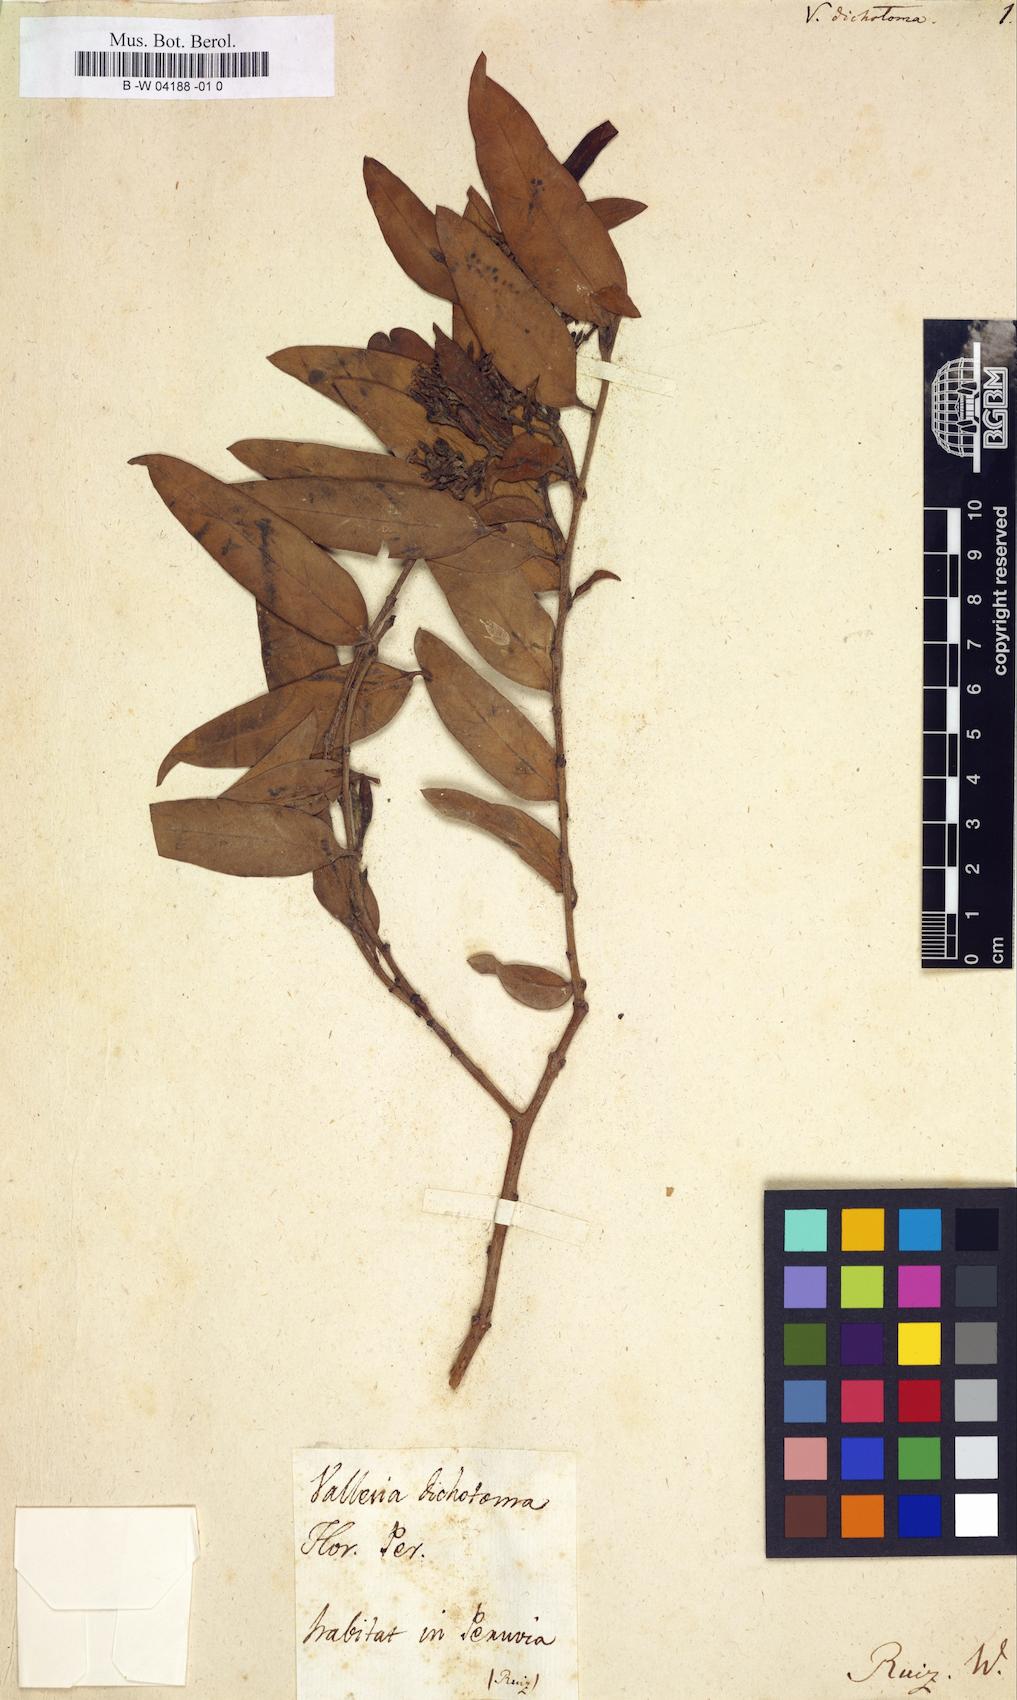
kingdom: Plantae
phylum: Tracheophyta
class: Magnoliopsida
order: Gentianales
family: Apocynaceae
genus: Vallesia
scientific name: Vallesia glabra
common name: Pearlberry
